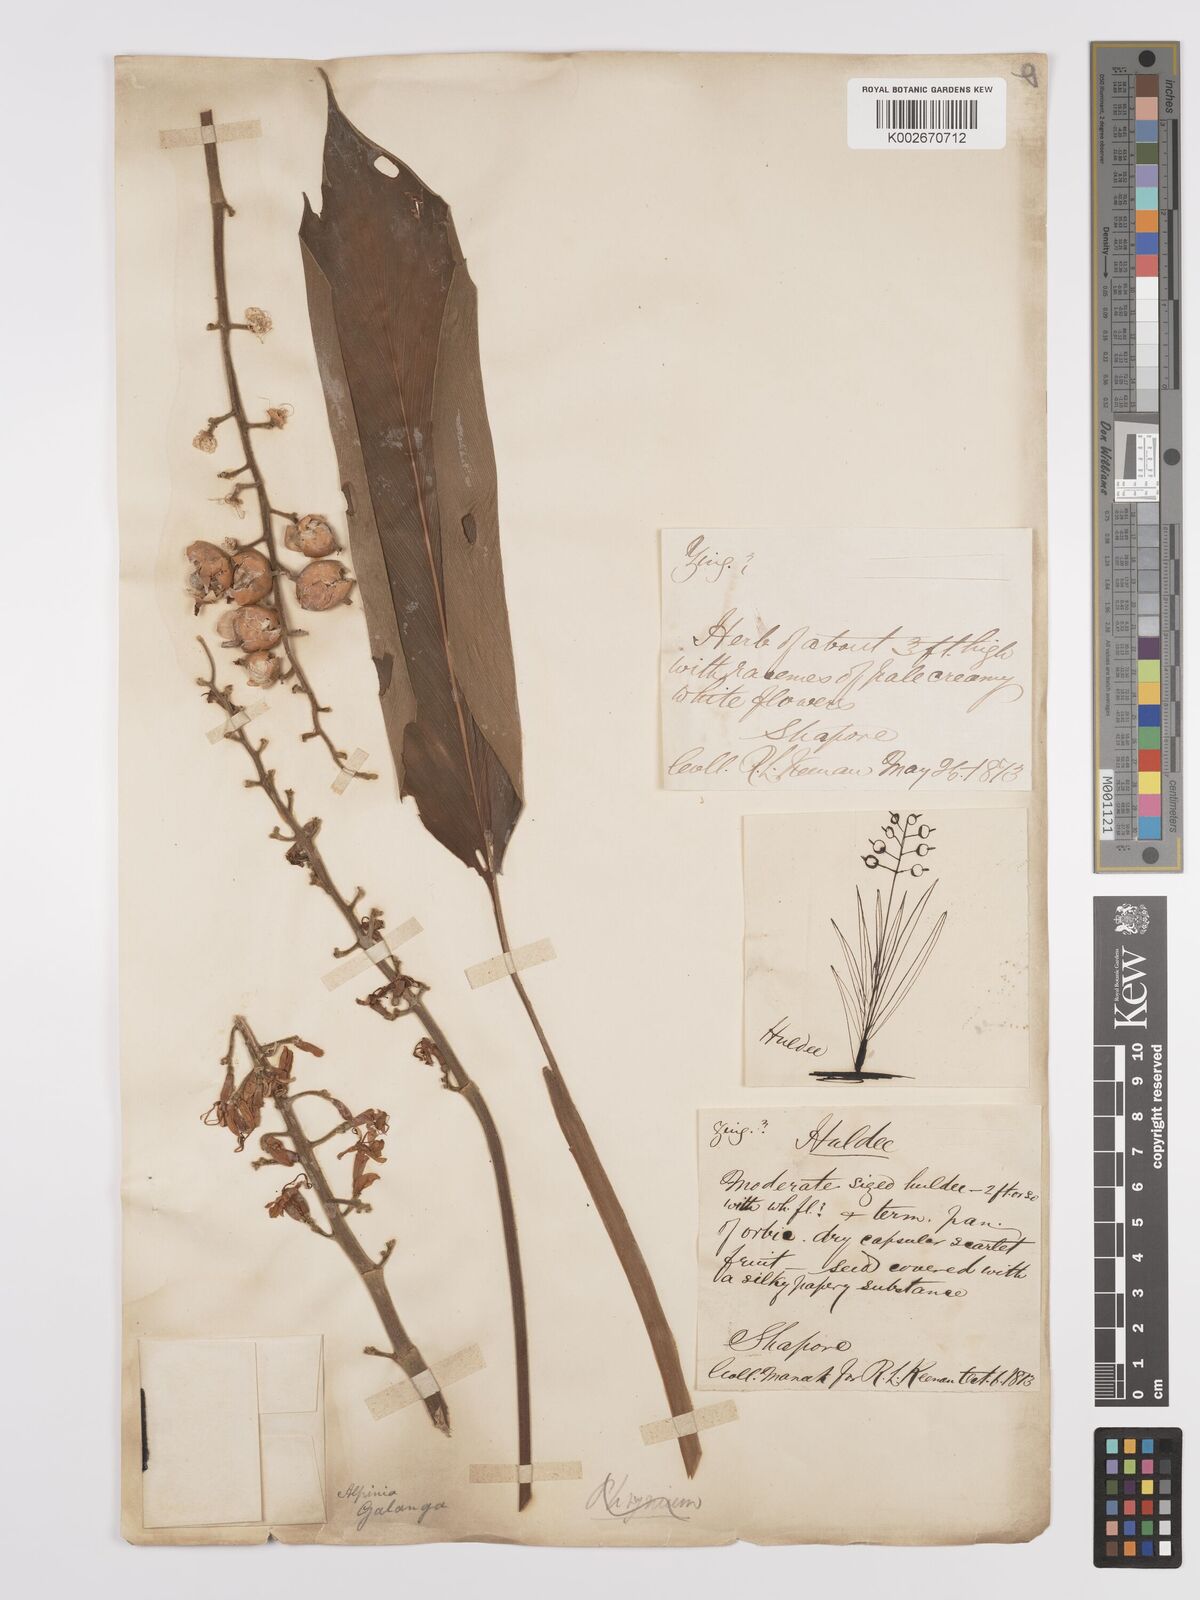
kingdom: Plantae
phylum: Tracheophyta
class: Liliopsida
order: Zingiberales
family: Zingiberaceae
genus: Alpinia
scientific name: Alpinia galanga
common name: Siamese-ginger
